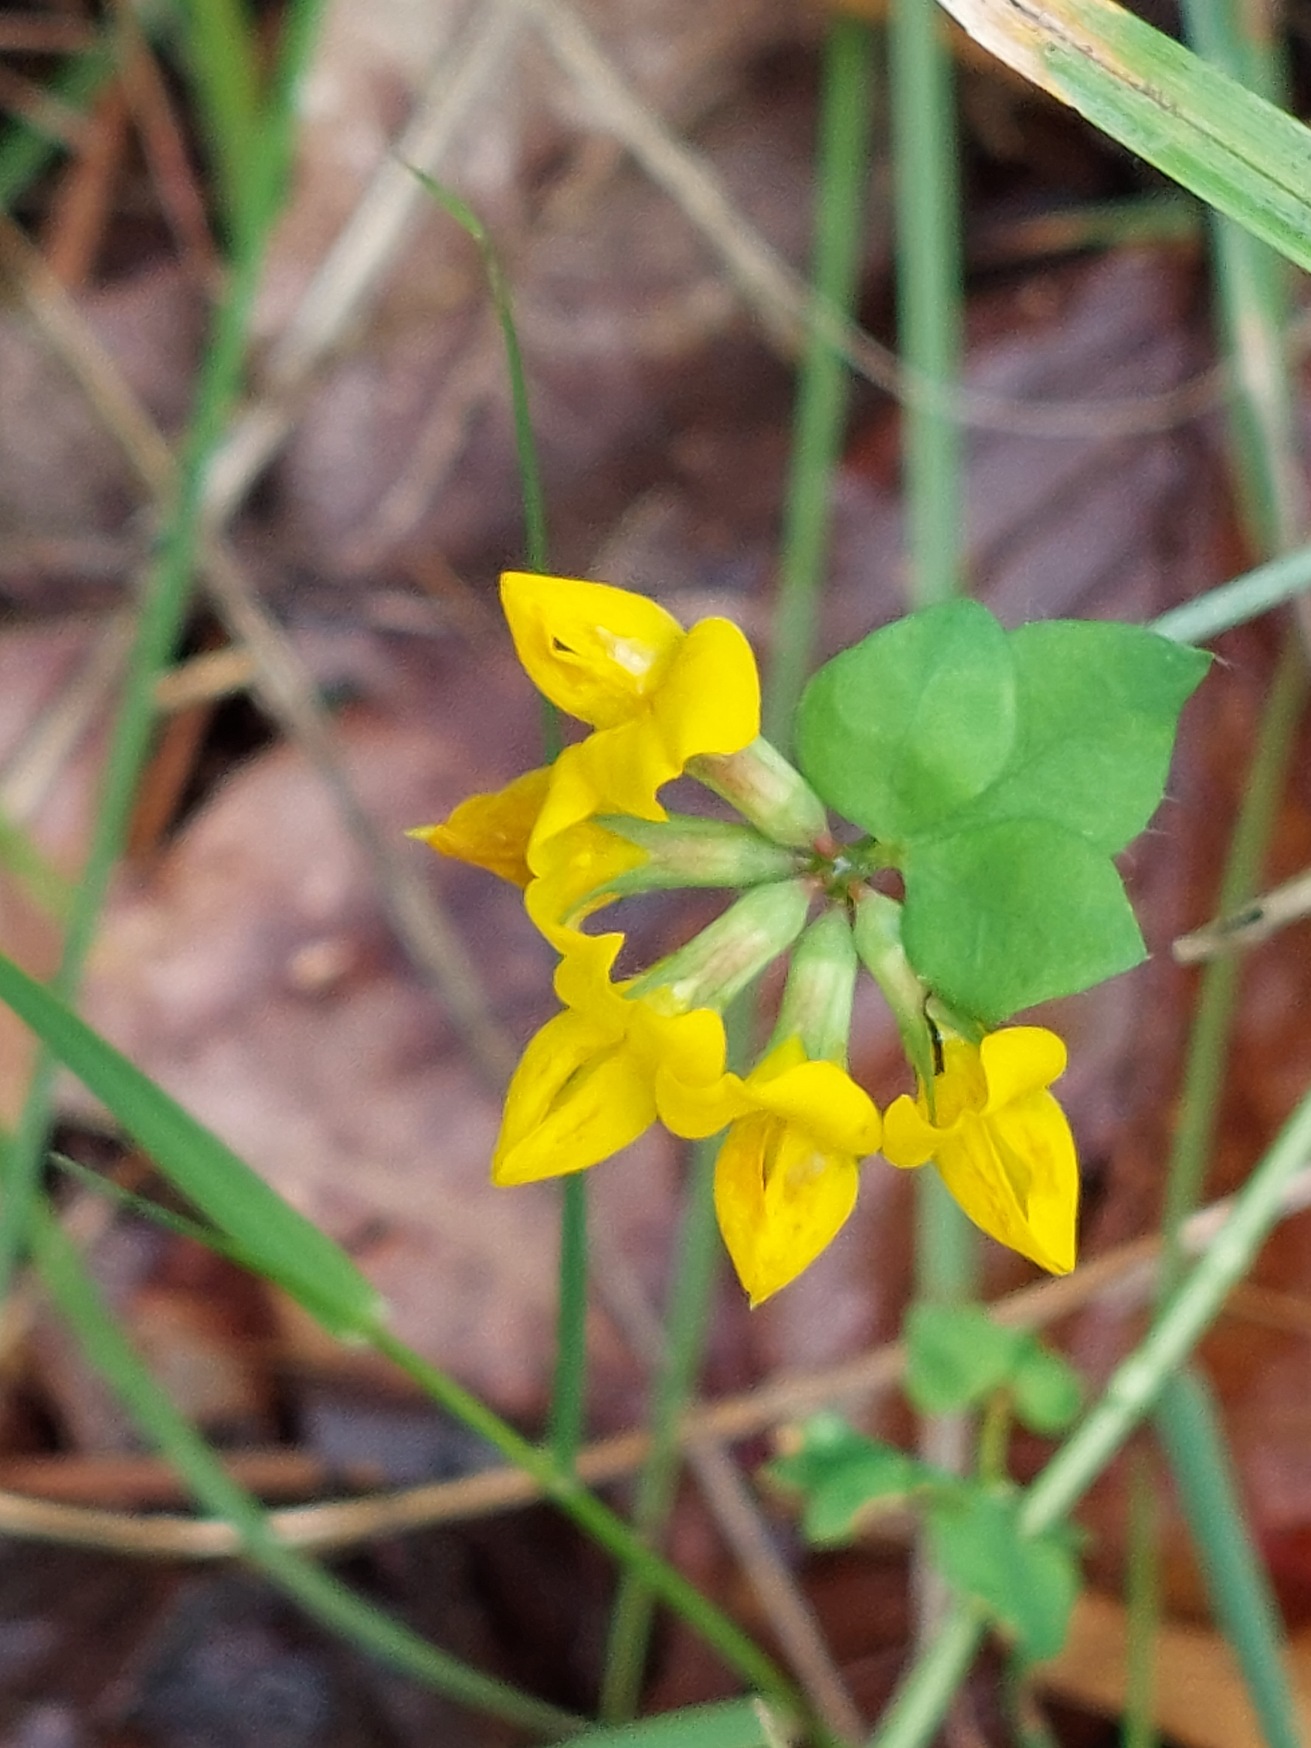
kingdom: Plantae
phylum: Tracheophyta
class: Magnoliopsida
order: Fabales
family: Fabaceae
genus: Lotus
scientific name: Lotus pedunculatus
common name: Sump-kællingetand
